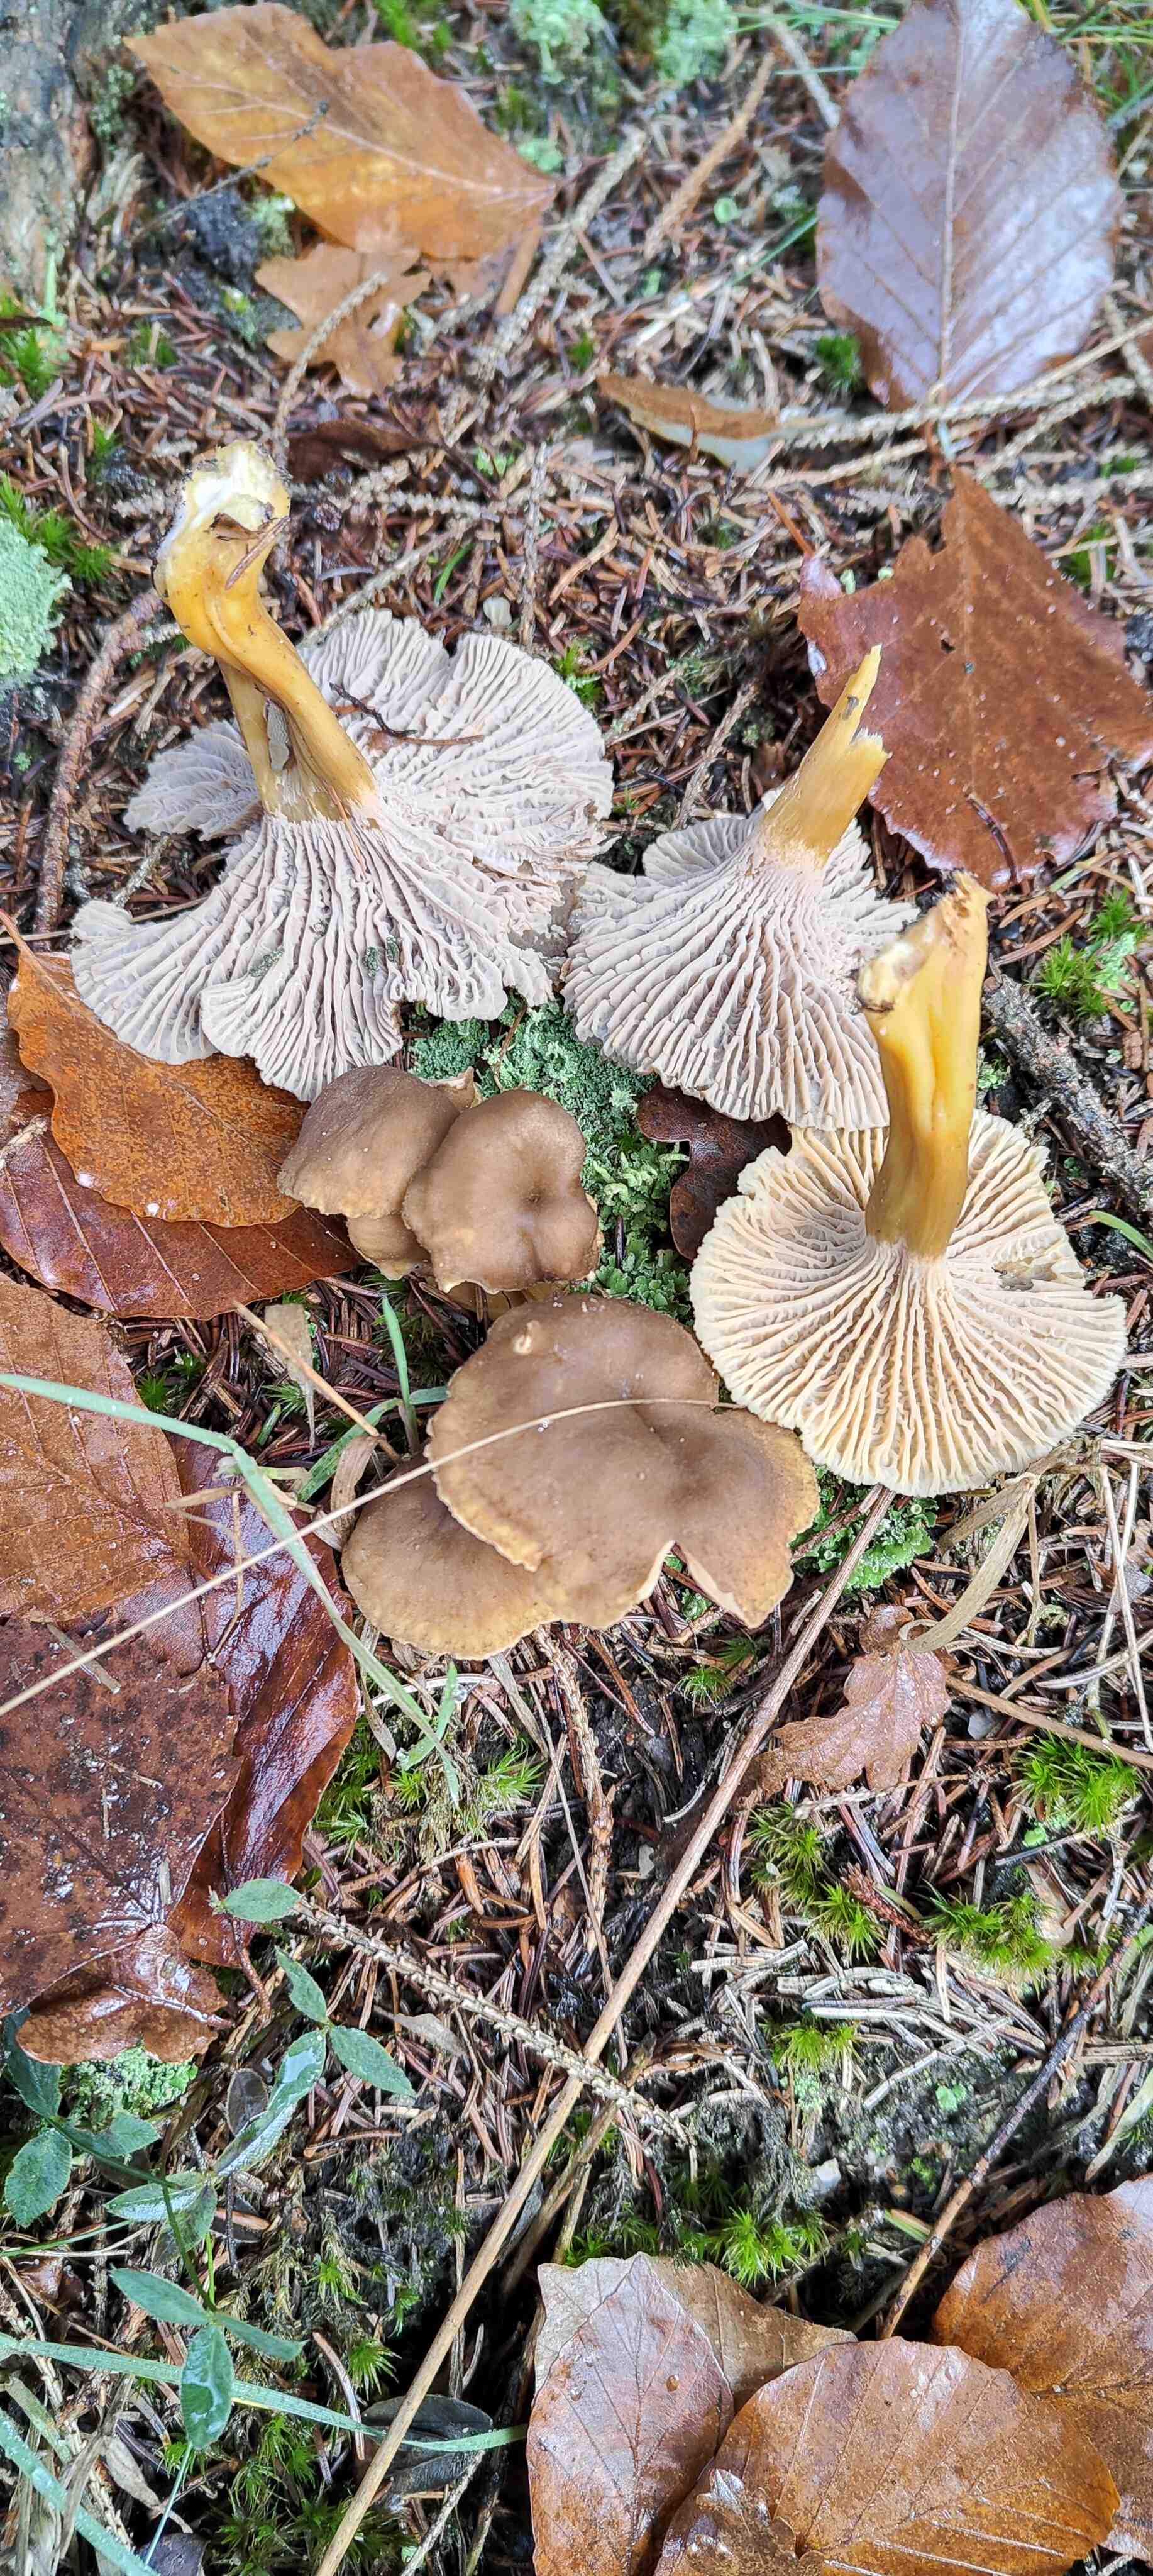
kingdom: Fungi
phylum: Basidiomycota
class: Agaricomycetes
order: Cantharellales
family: Hydnaceae
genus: Craterellus
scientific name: Craterellus tubaeformis
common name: tragt-kantarel
